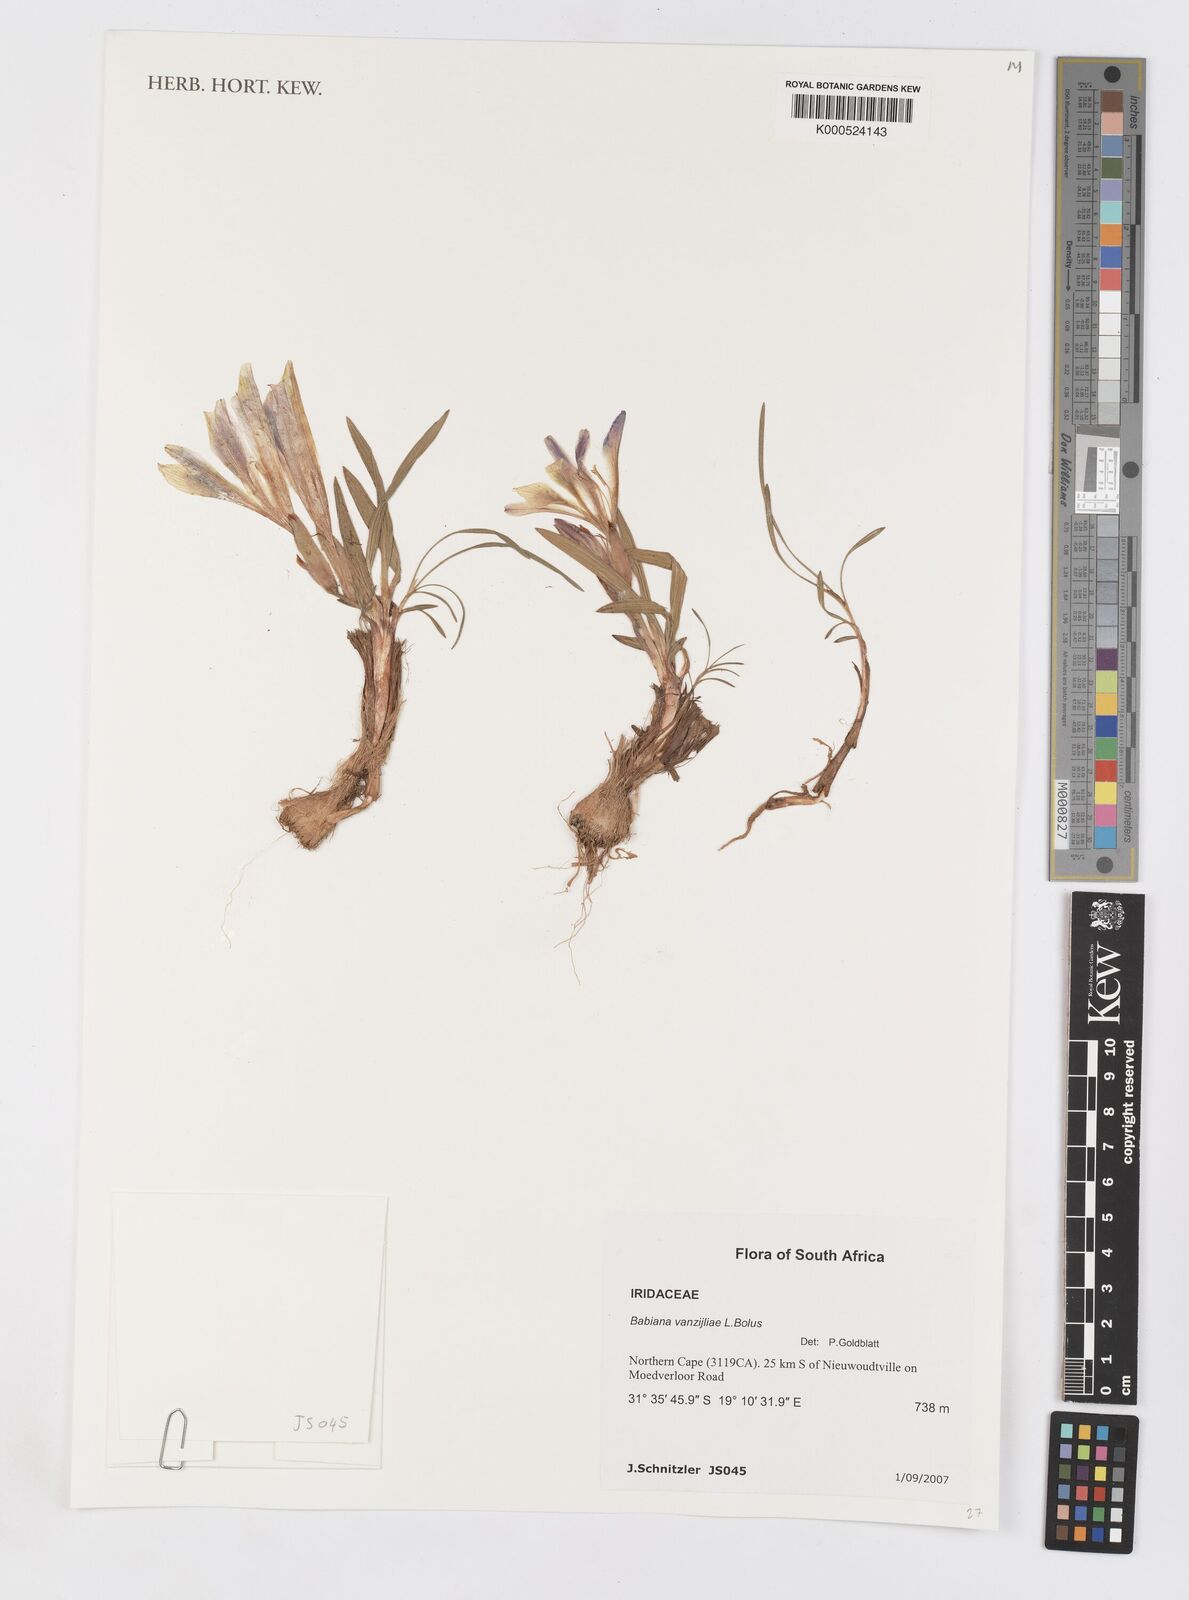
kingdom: Plantae
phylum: Tracheophyta
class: Liliopsida
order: Asparagales
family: Iridaceae
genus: Babiana
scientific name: Babiana vanzijliae
